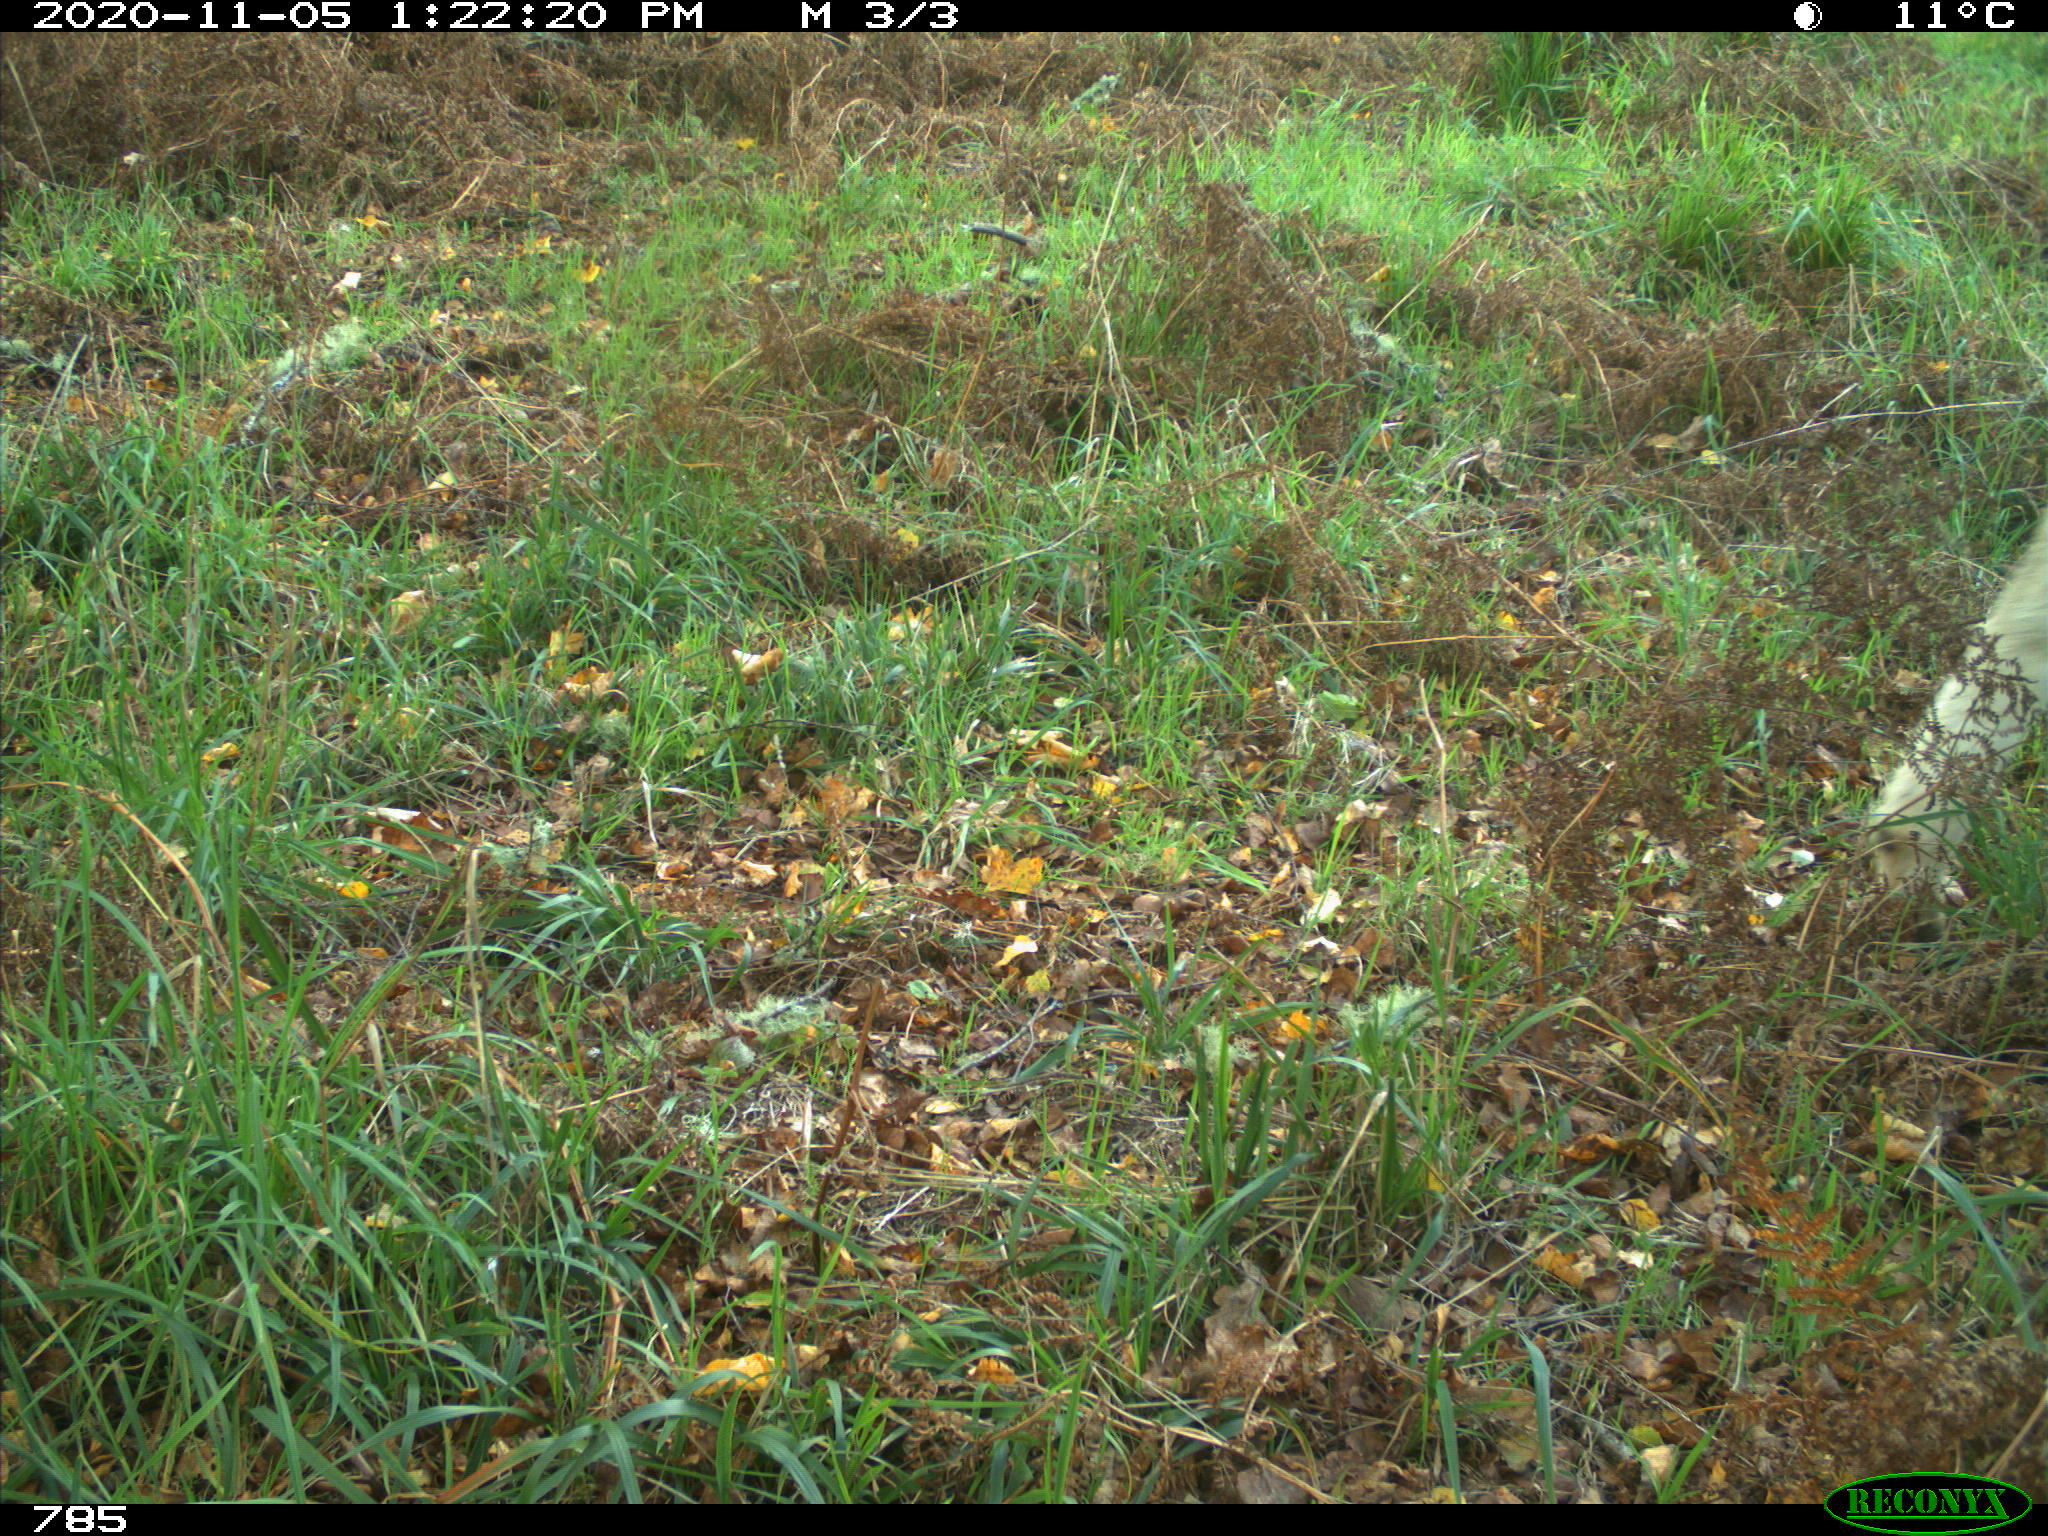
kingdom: Animalia
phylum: Chordata
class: Mammalia
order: Artiodactyla
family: Bovidae
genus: Bos
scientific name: Bos taurus
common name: Domesticated cattle
